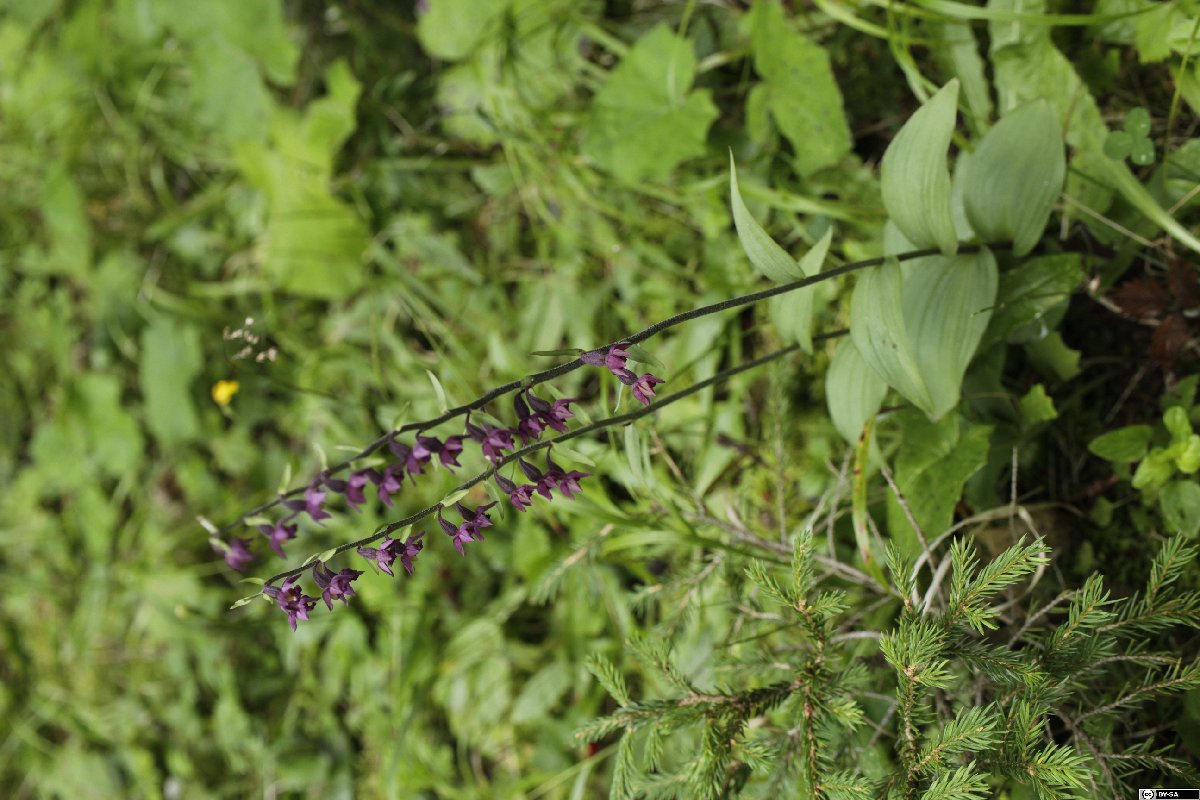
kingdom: Plantae
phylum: Tracheophyta
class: Liliopsida
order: Asparagales
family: Orchidaceae
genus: Epipactis
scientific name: Epipactis atrorubens
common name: Dark-red helleborine
